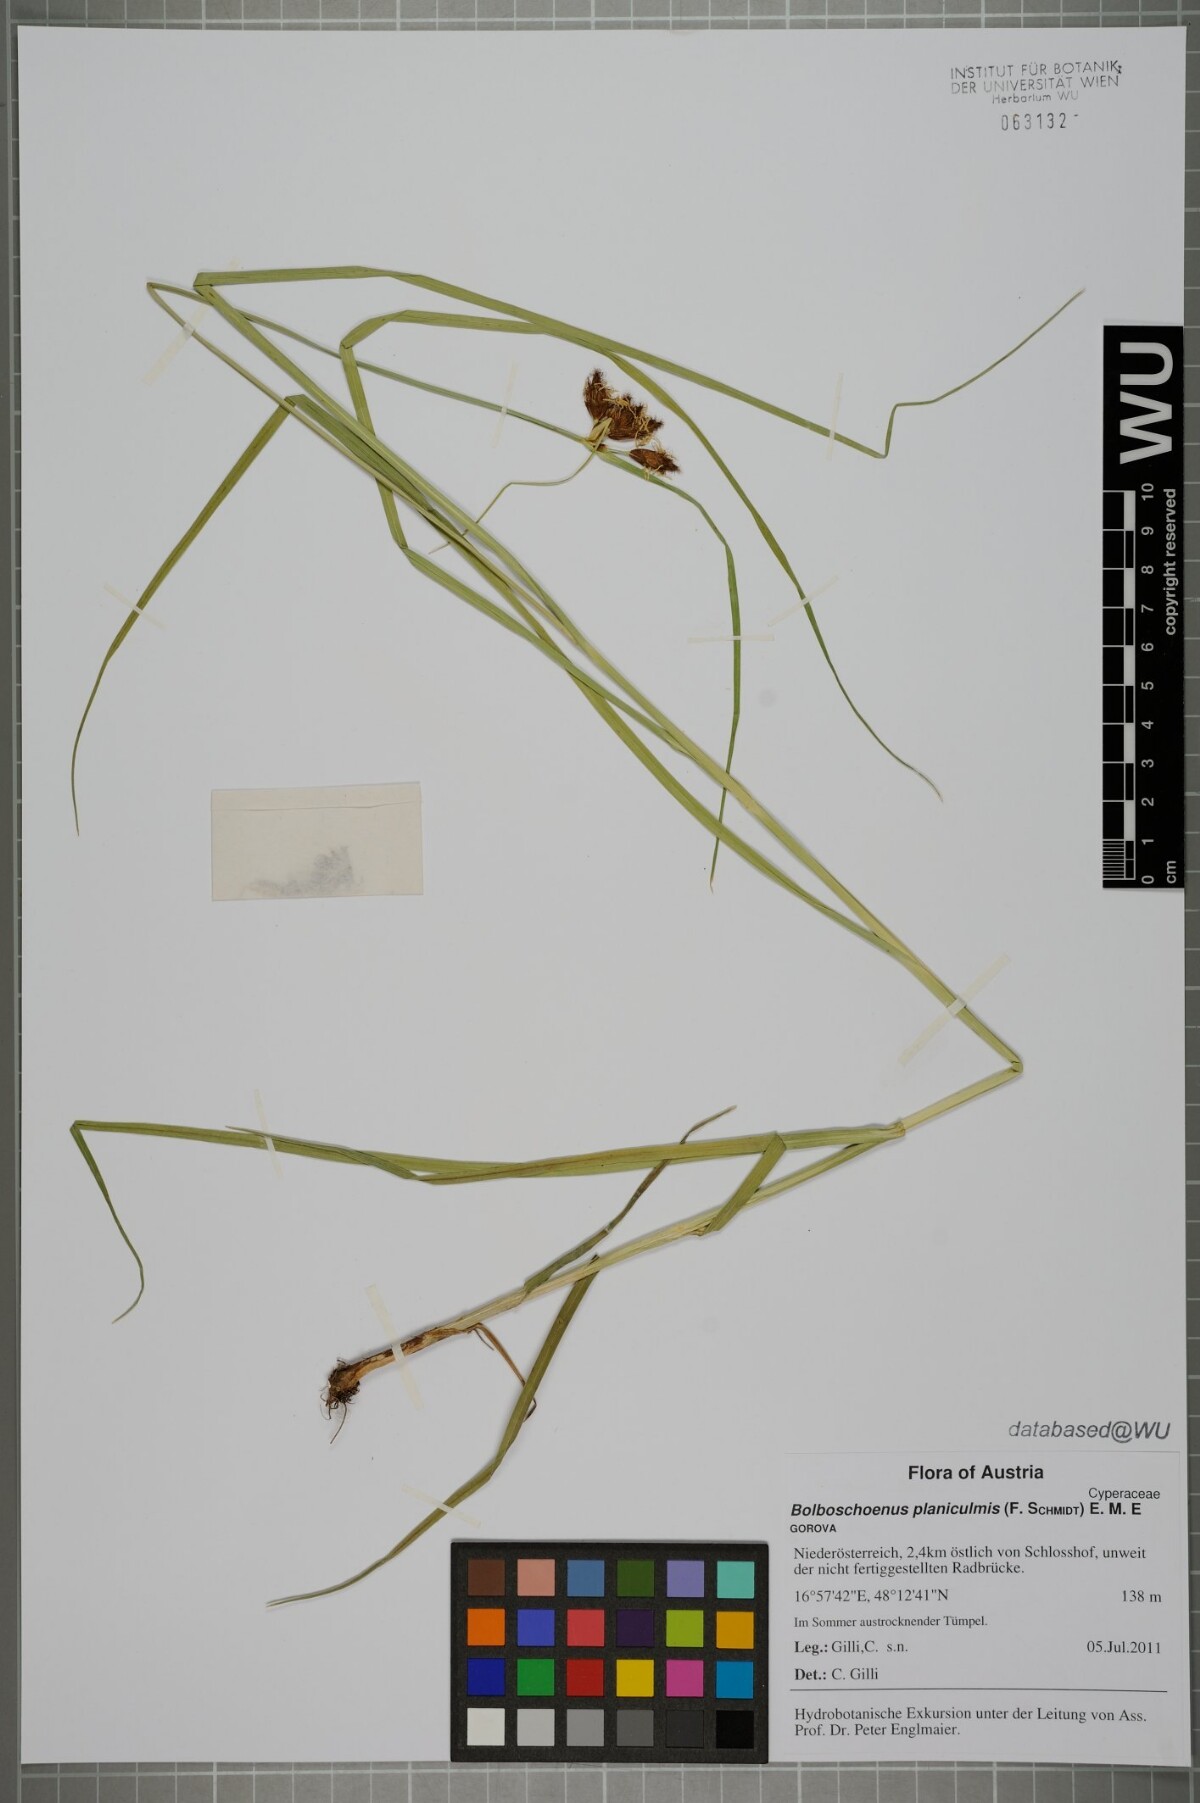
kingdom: Plantae
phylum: Tracheophyta
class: Liliopsida
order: Poales
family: Cyperaceae
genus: Bolboschoenus
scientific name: Bolboschoenus planiculmis
